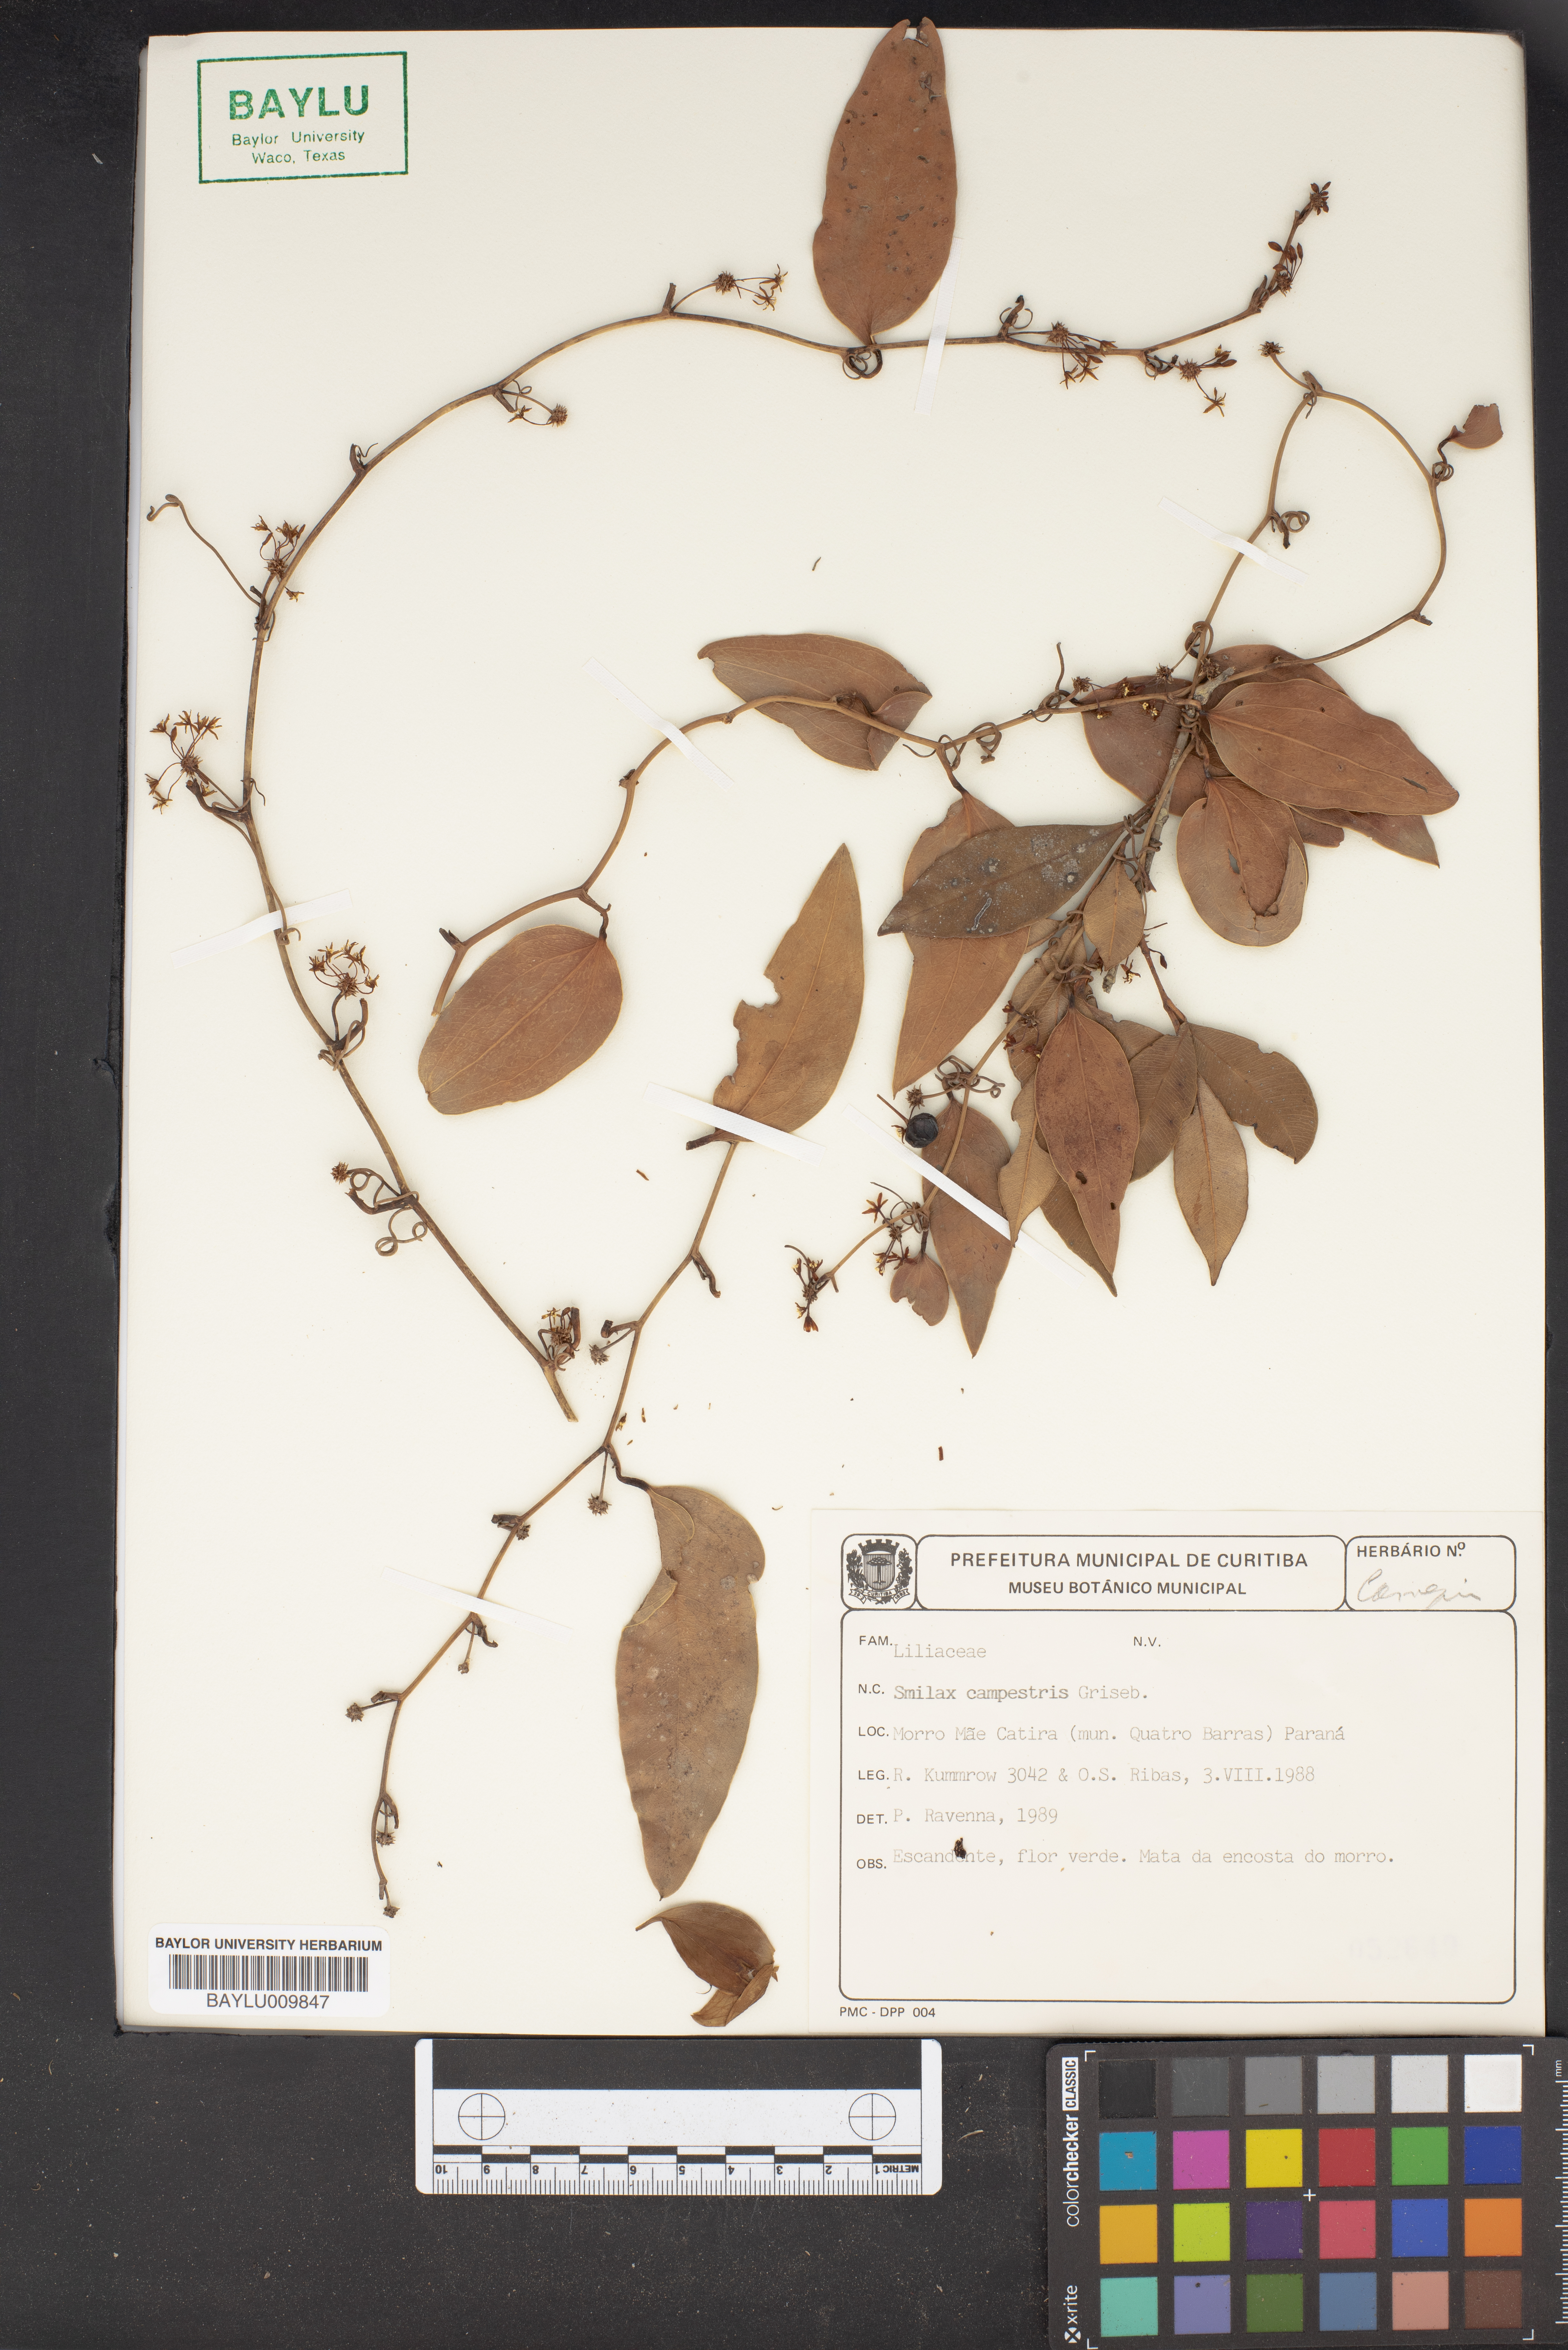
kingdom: Plantae
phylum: Tracheophyta
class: Liliopsida
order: Liliales
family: Smilacaceae
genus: Smilax
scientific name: Smilax campestris
